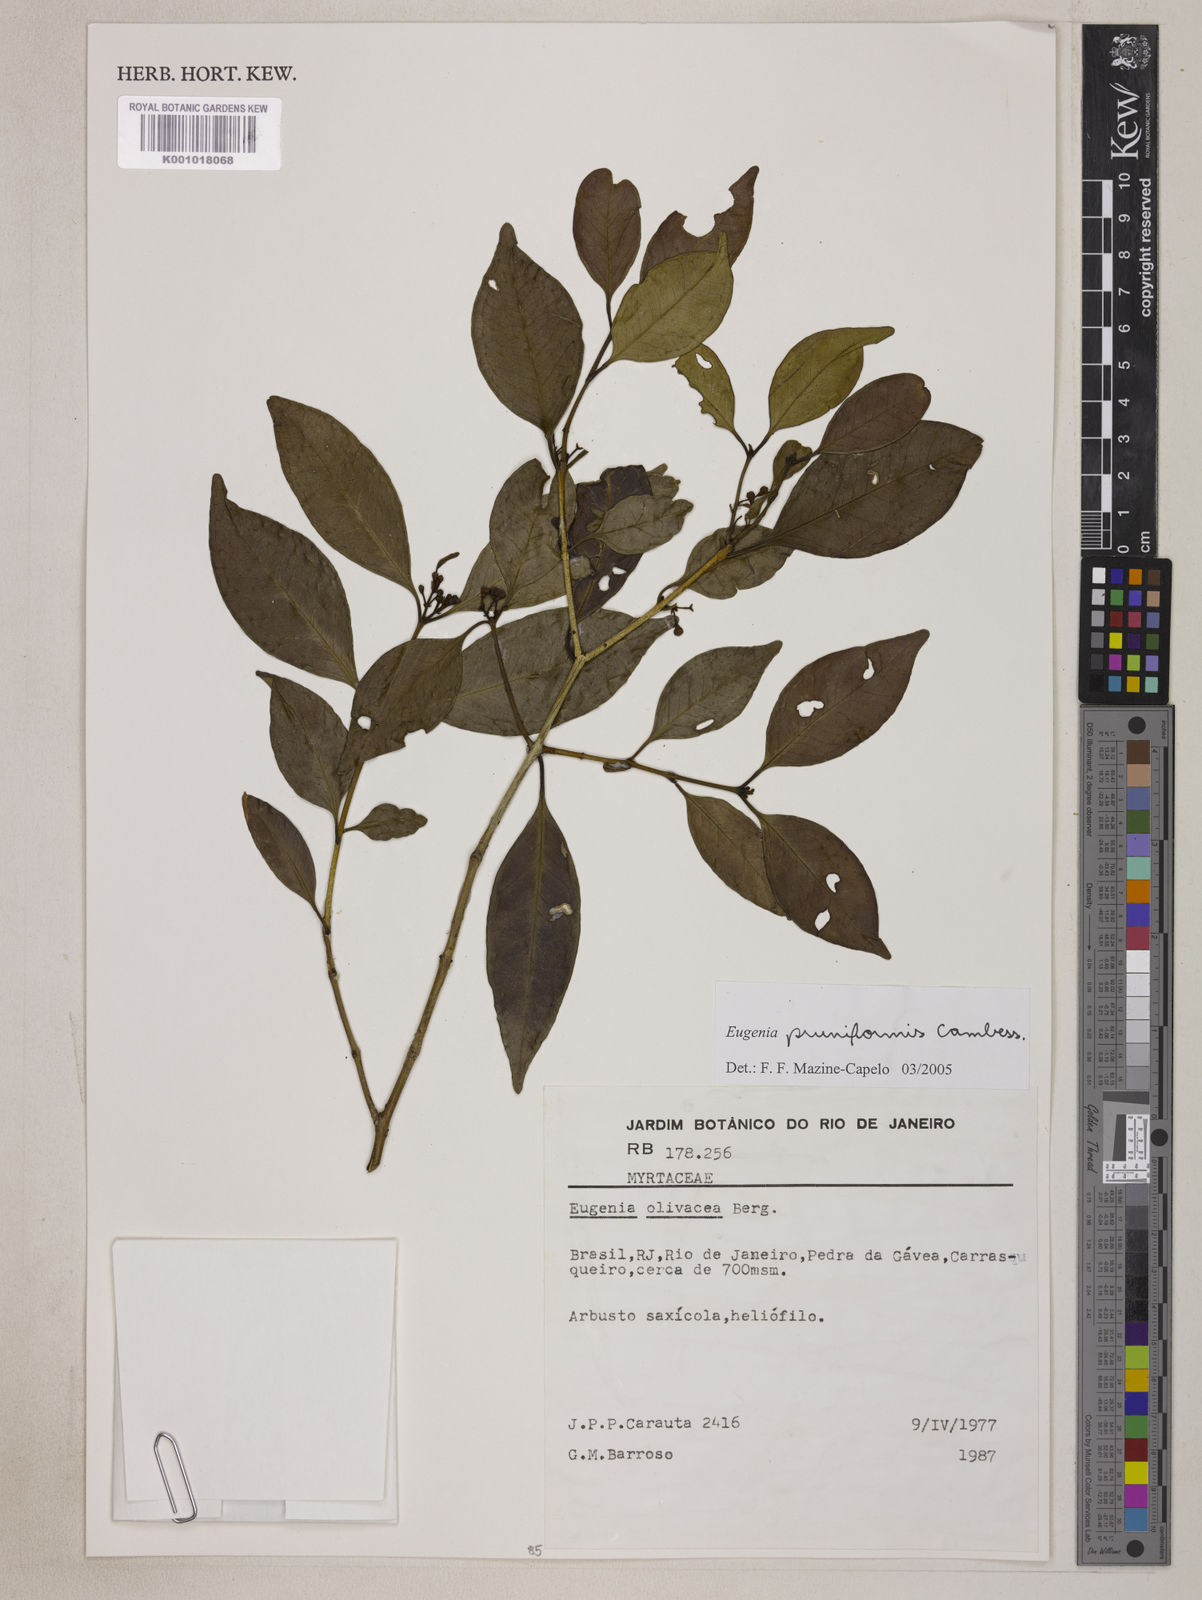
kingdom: Plantae
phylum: Tracheophyta
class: Magnoliopsida
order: Myrtales
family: Myrtaceae
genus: Eugenia
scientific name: Eugenia pruniformis
